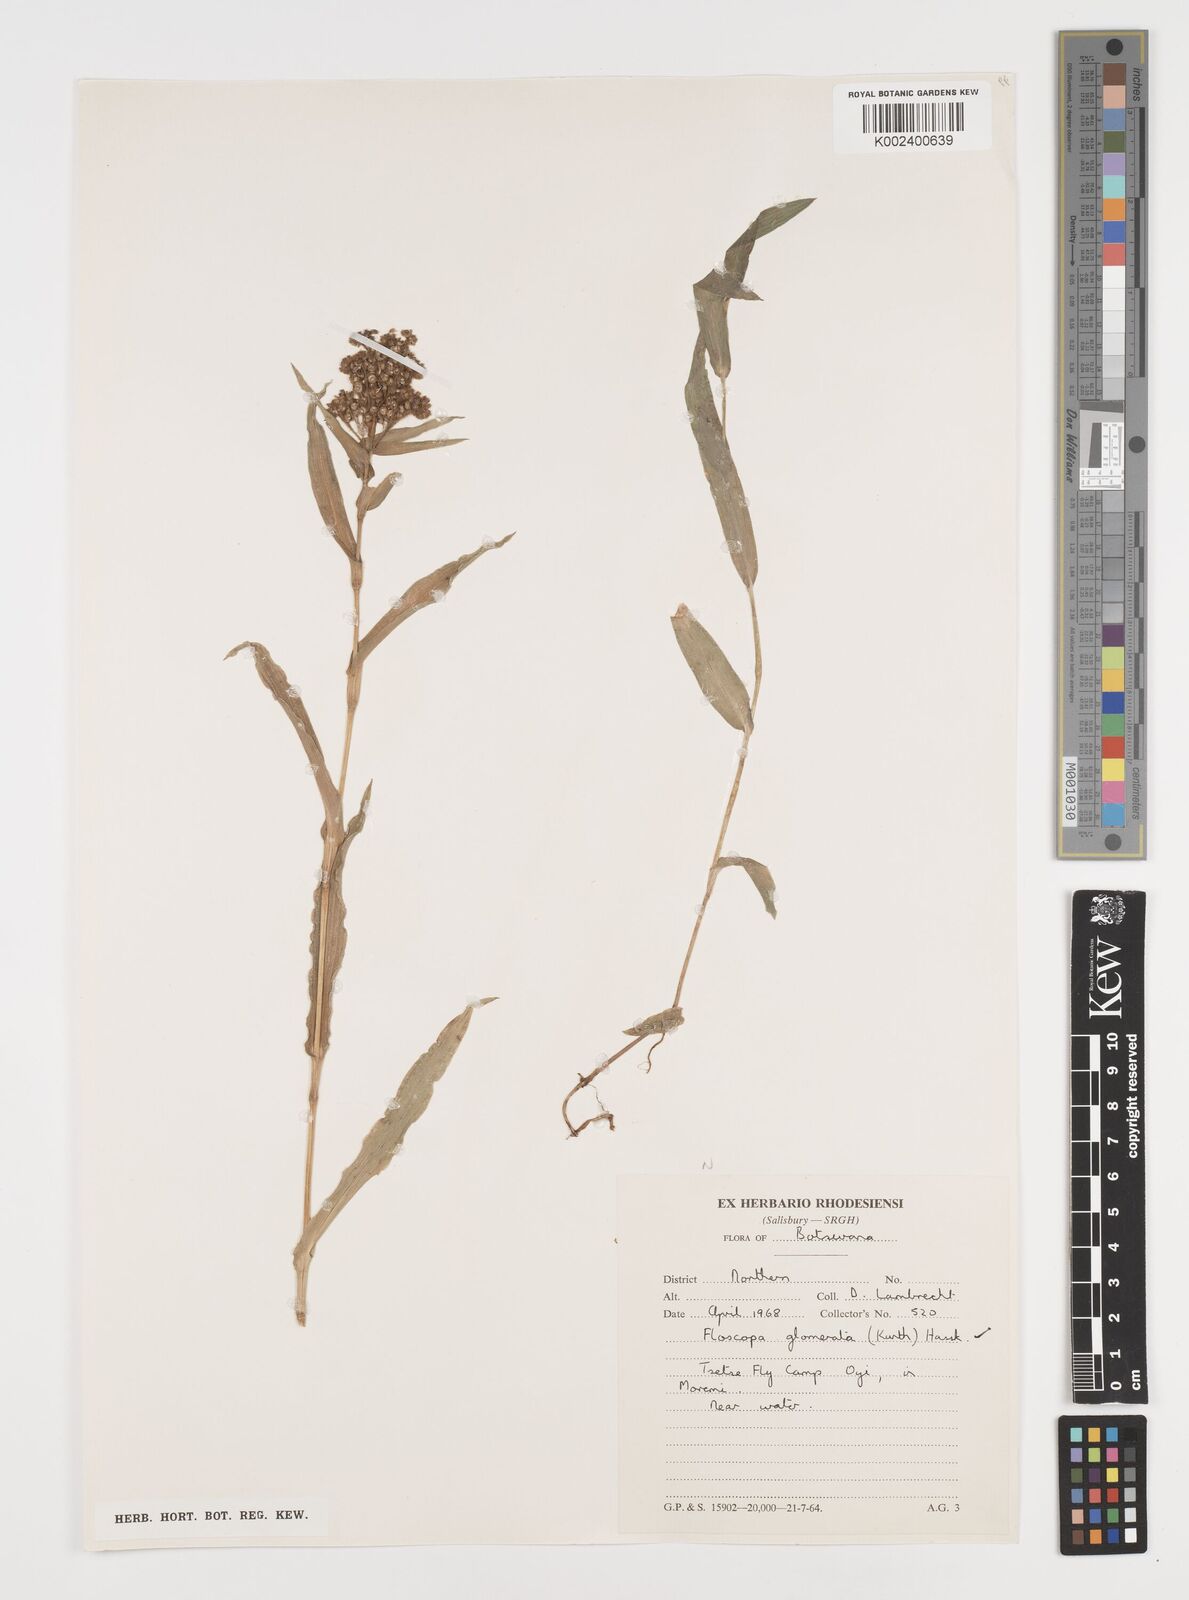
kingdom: Plantae
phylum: Tracheophyta
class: Liliopsida
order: Commelinales
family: Commelinaceae
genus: Floscopa
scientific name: Floscopa glomerata
